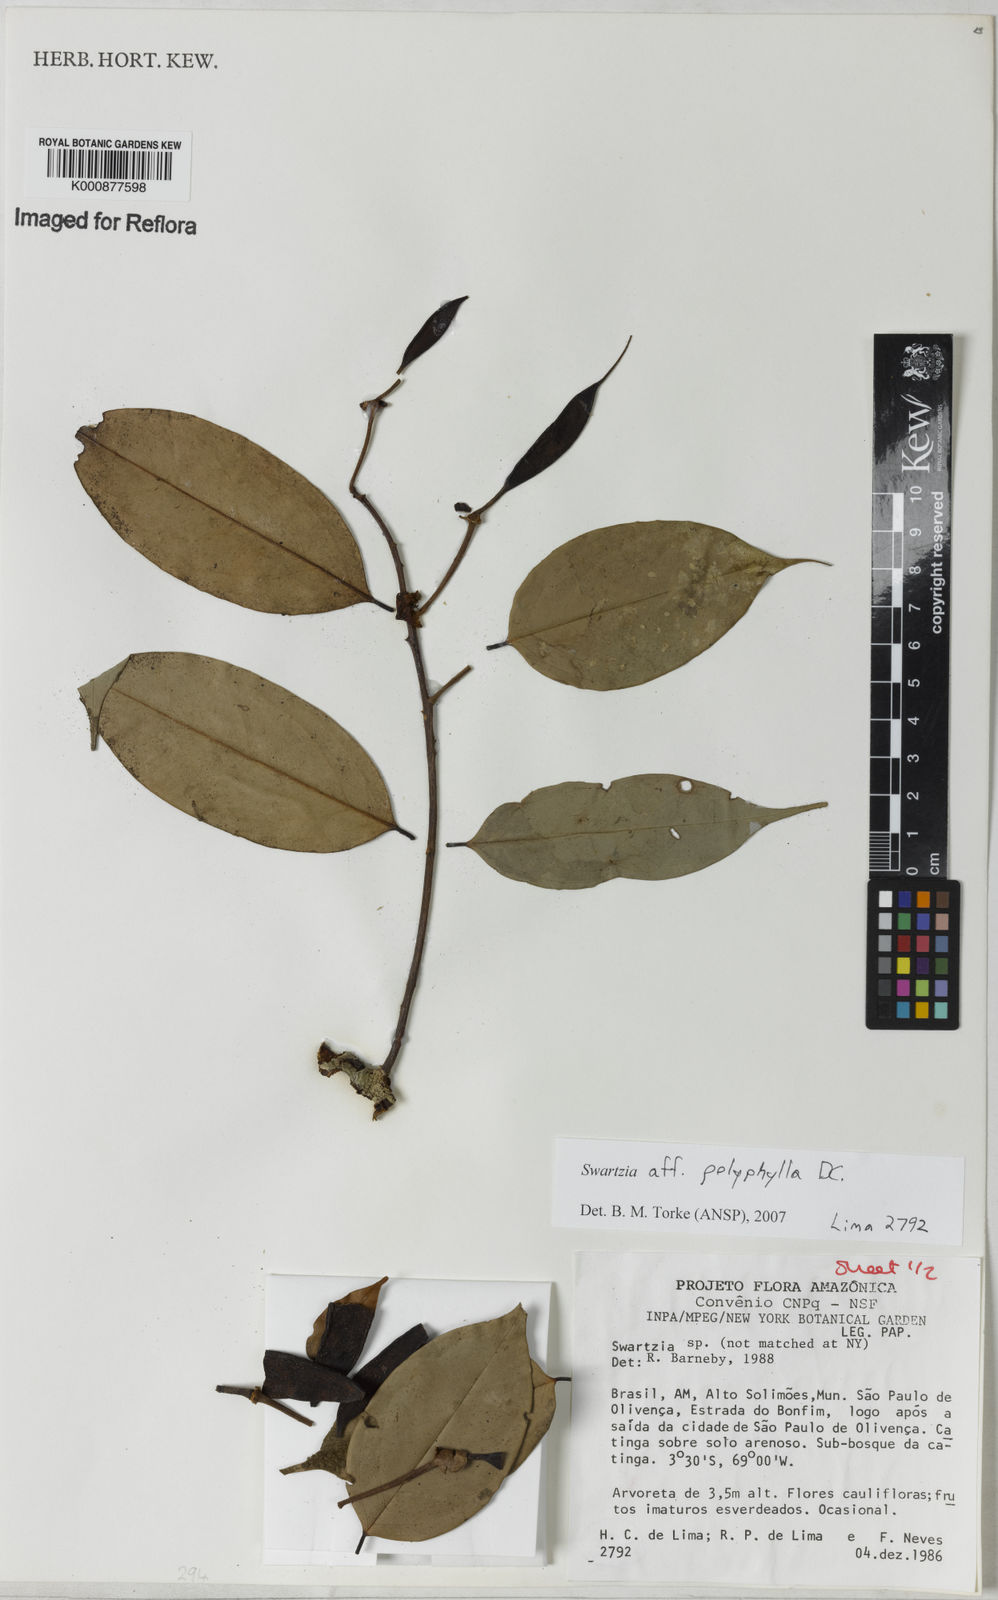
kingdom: Plantae
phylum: Tracheophyta
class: Magnoliopsida
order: Fabales
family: Fabaceae
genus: Swartzia
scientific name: Swartzia polyphylla
